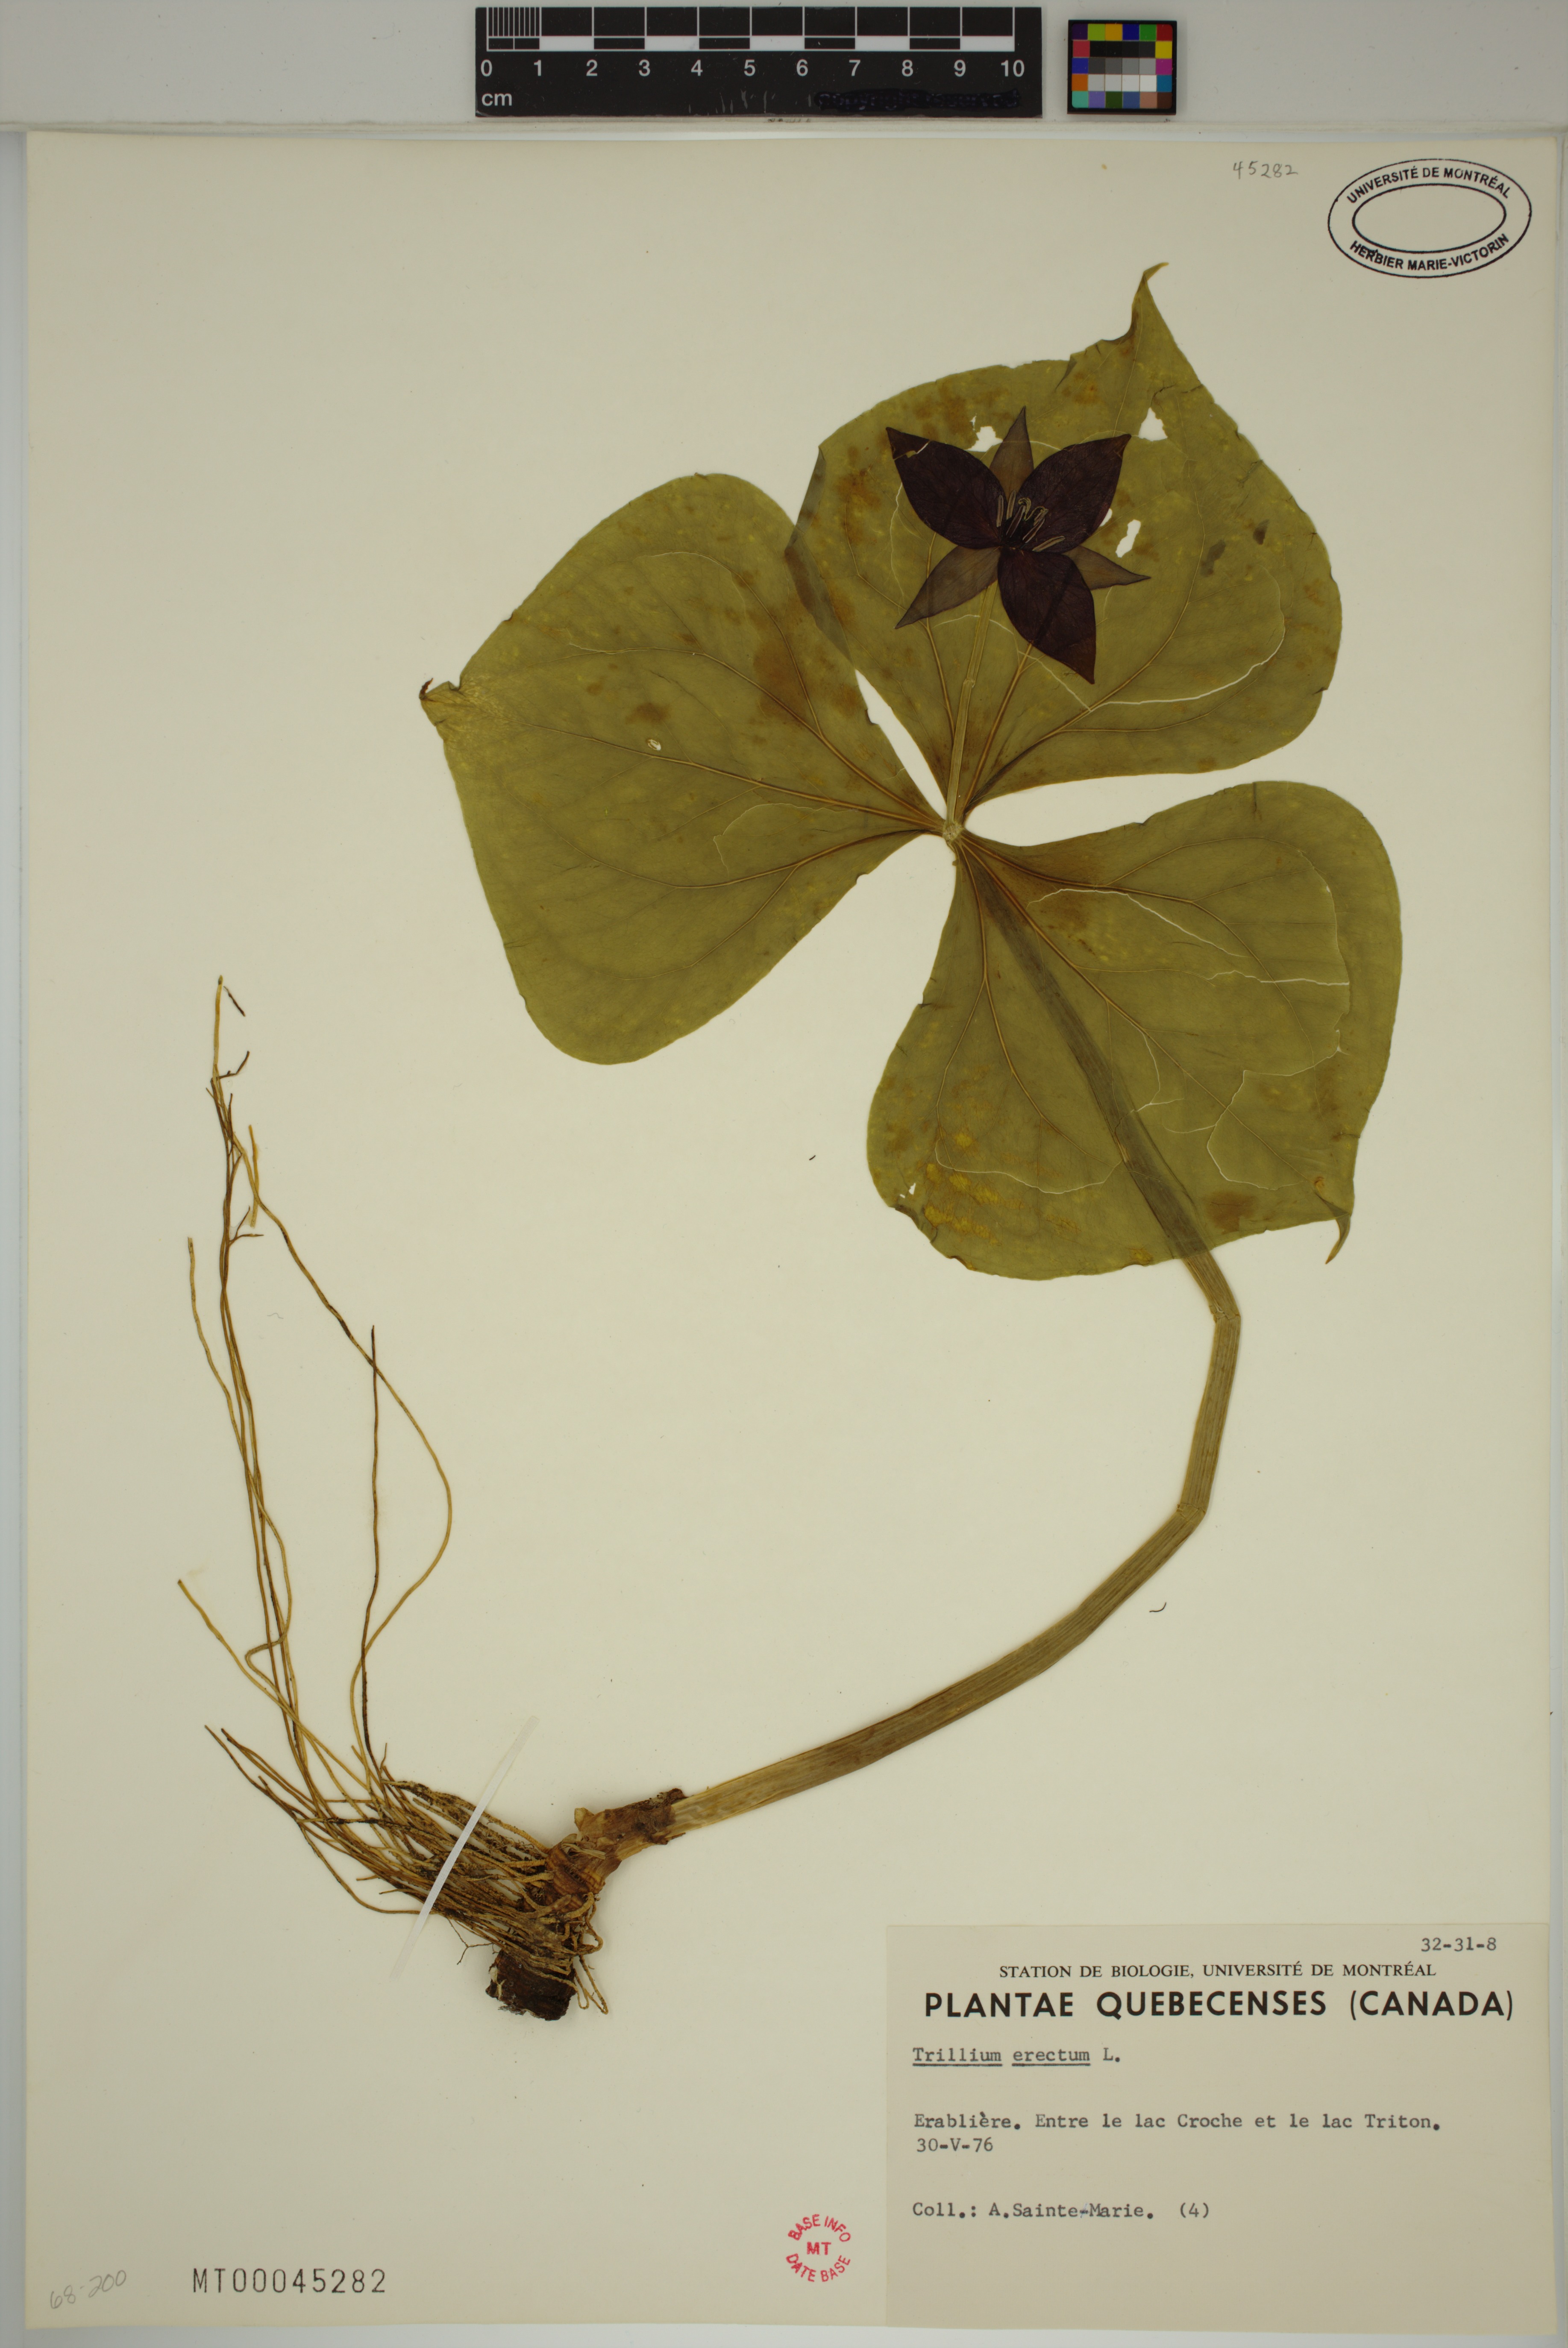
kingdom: Plantae
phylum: Tracheophyta
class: Liliopsida
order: Liliales
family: Melanthiaceae
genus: Trillium
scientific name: Trillium erectum
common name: Purple trillium
